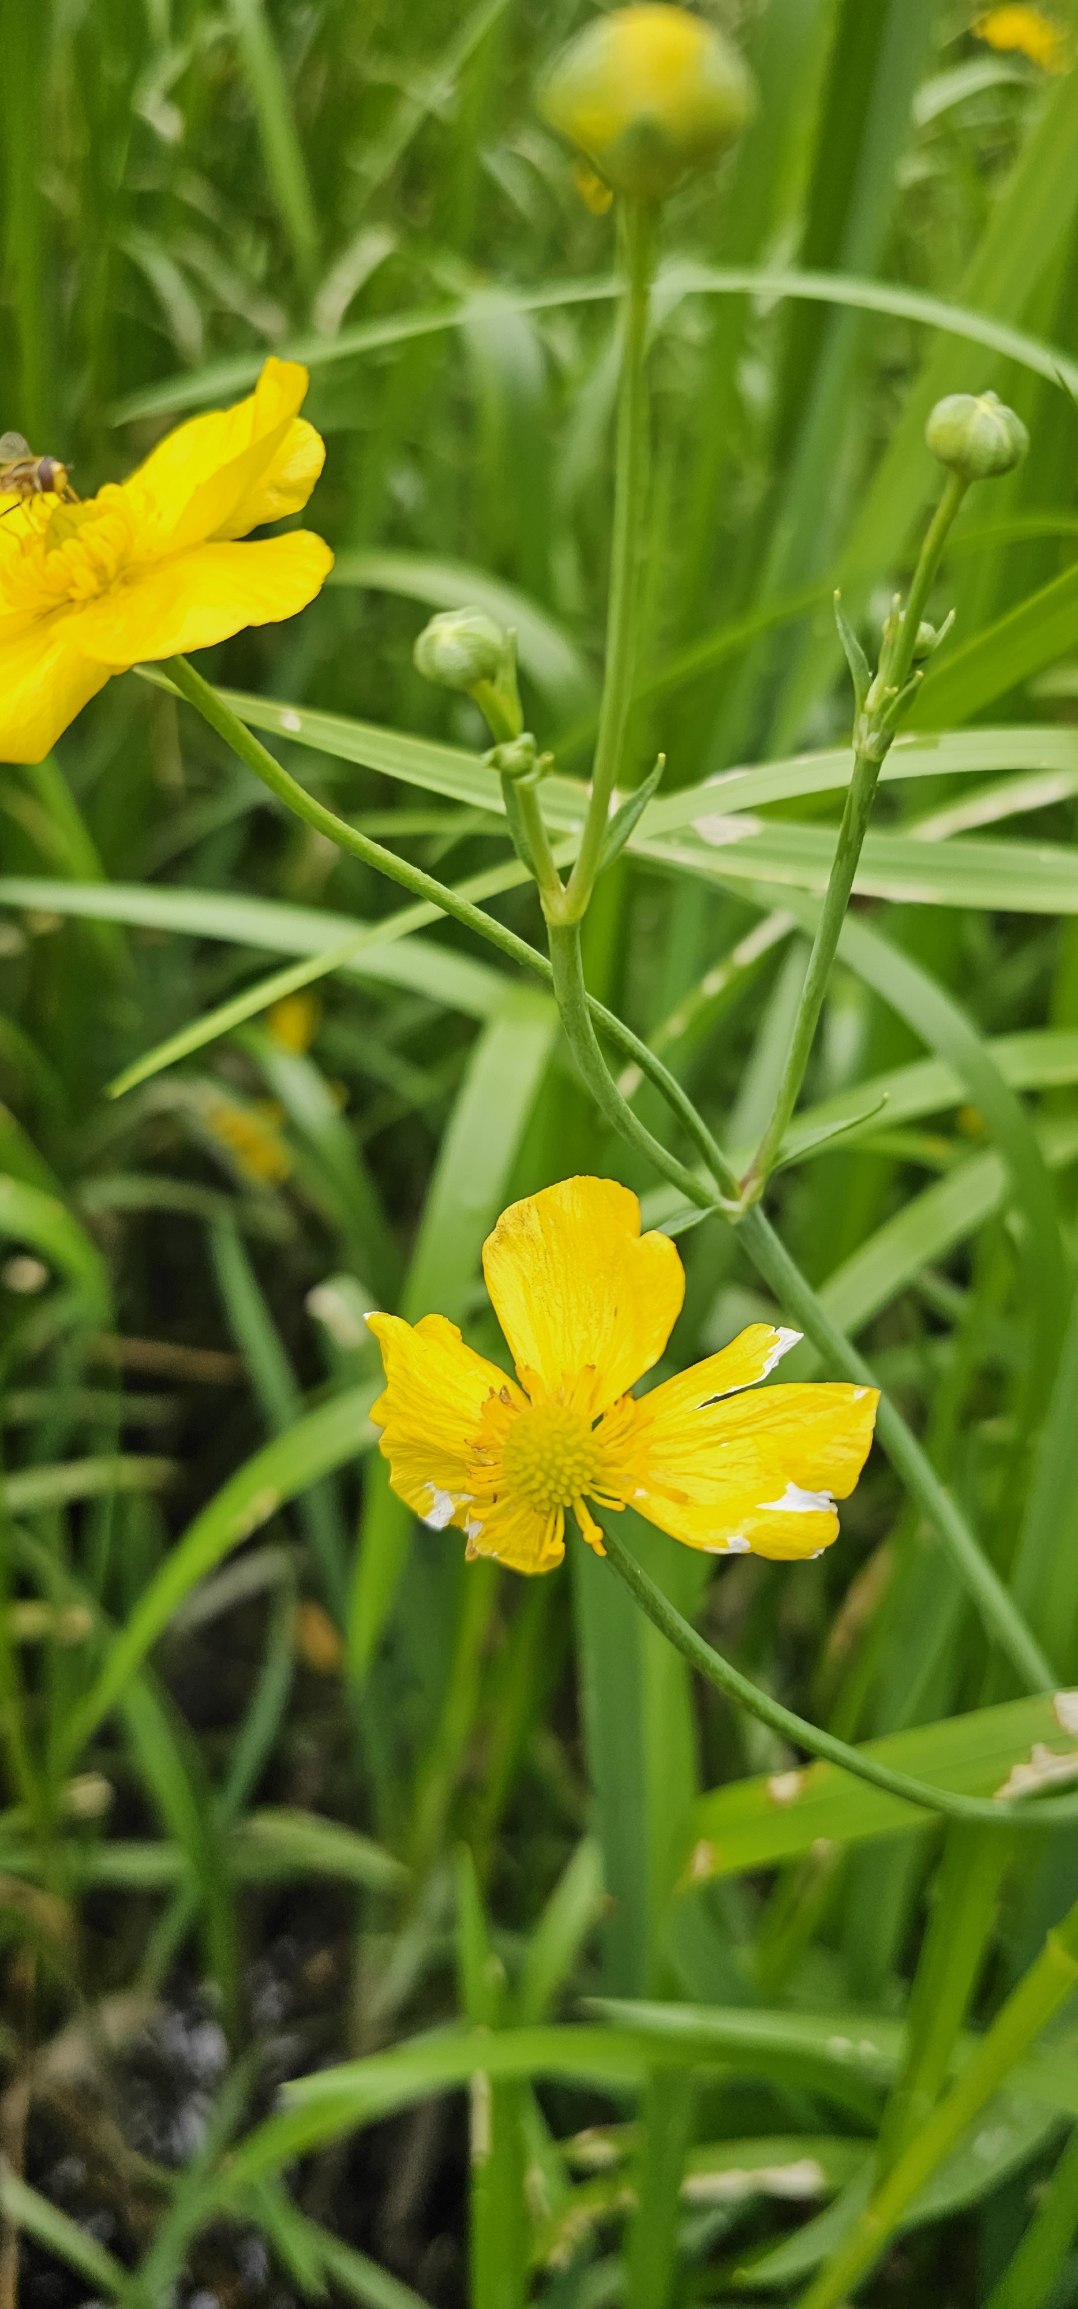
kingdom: Plantae
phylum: Tracheophyta
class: Magnoliopsida
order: Ranunculales
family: Ranunculaceae
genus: Ranunculus
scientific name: Ranunculus lingua
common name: Langbladet ranunkel
